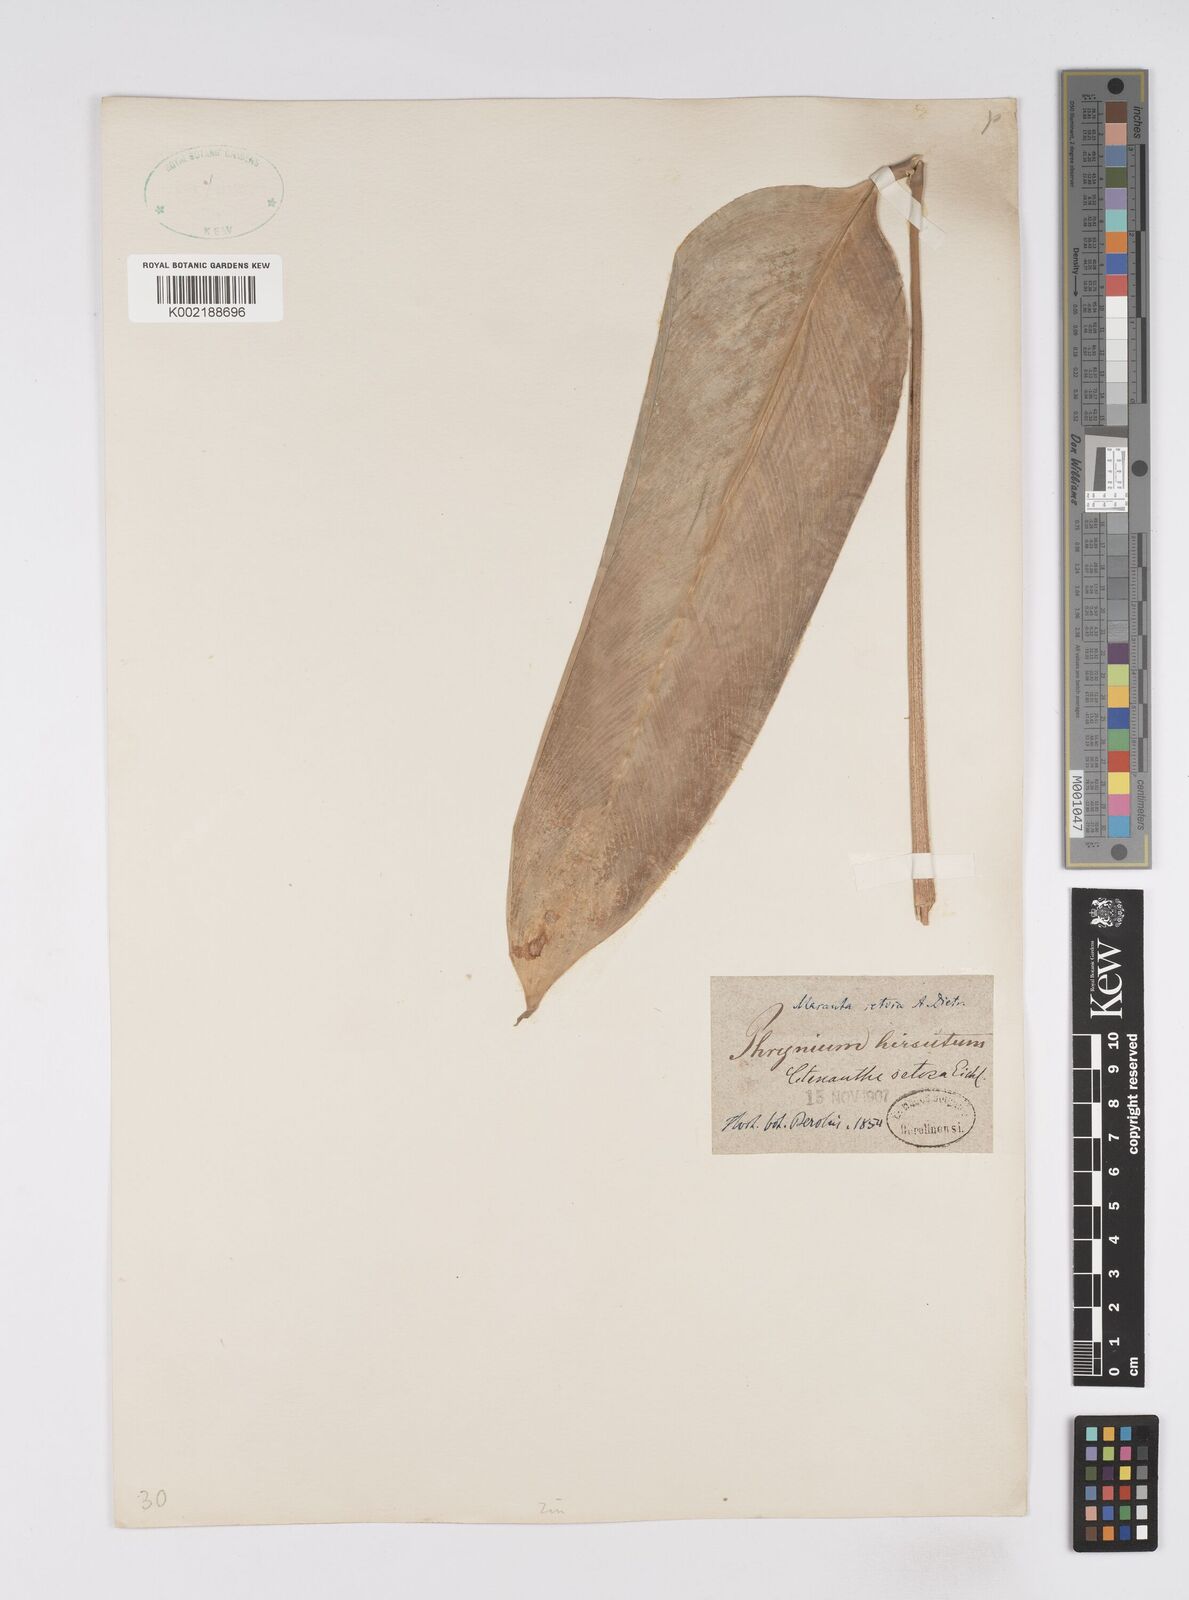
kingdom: Plantae
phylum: Tracheophyta
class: Liliopsida
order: Zingiberales
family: Marantaceae
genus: Ctenanthe
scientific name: Ctenanthe
